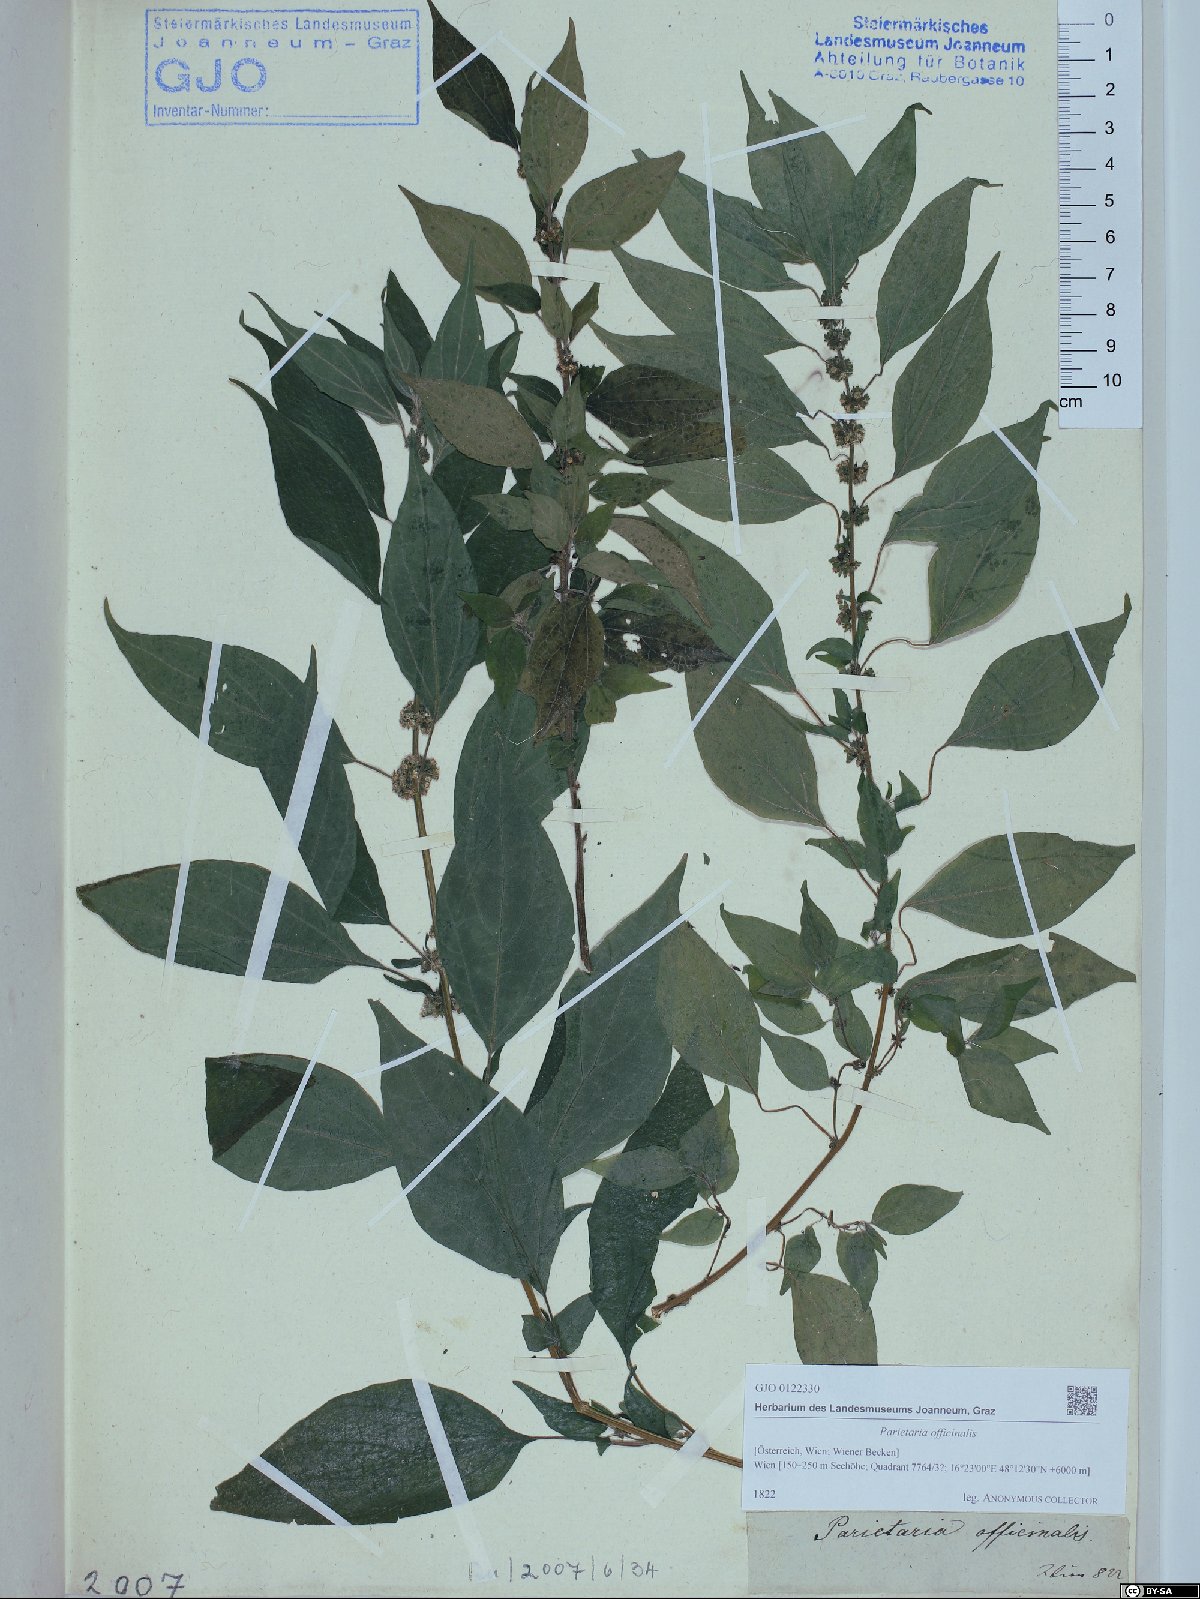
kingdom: Plantae
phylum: Tracheophyta
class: Magnoliopsida
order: Rosales
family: Urticaceae
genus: Parietaria
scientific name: Parietaria officinalis
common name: Eastern pellitory-of-the-wall
